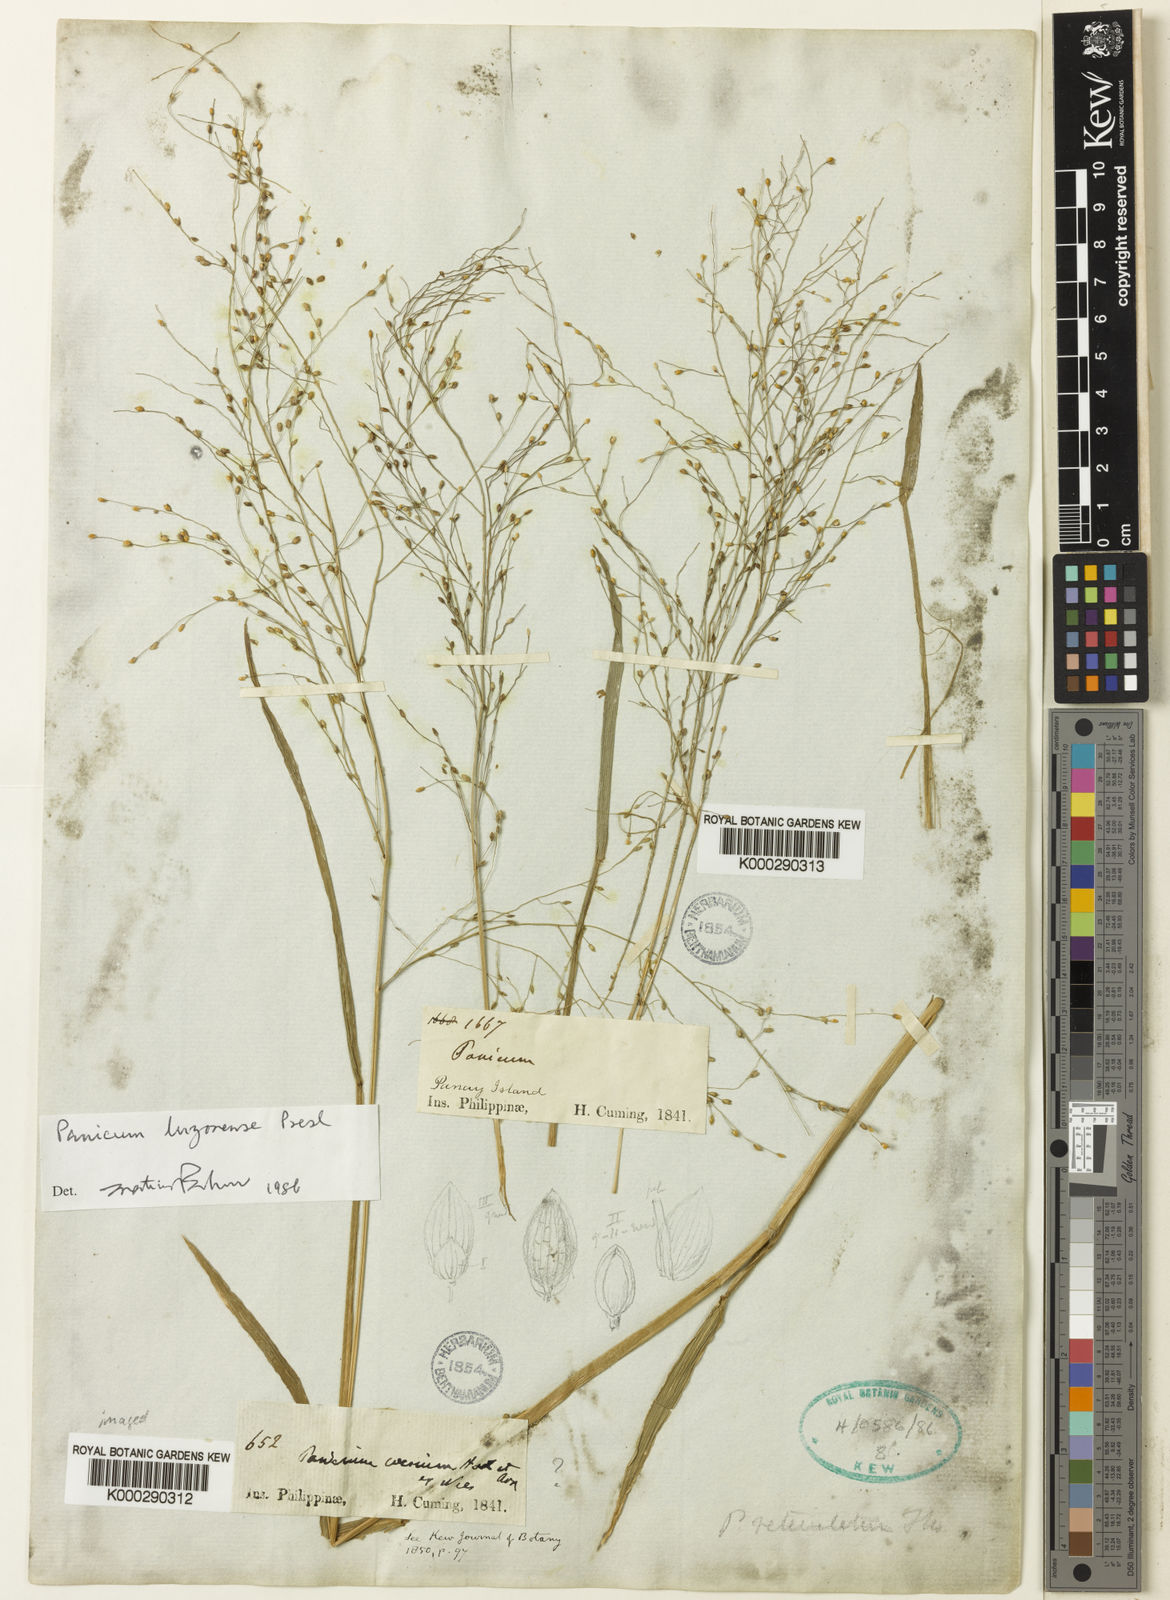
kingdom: Plantae
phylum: Tracheophyta
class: Liliopsida
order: Poales
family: Poaceae
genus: Panicum
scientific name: Panicum
